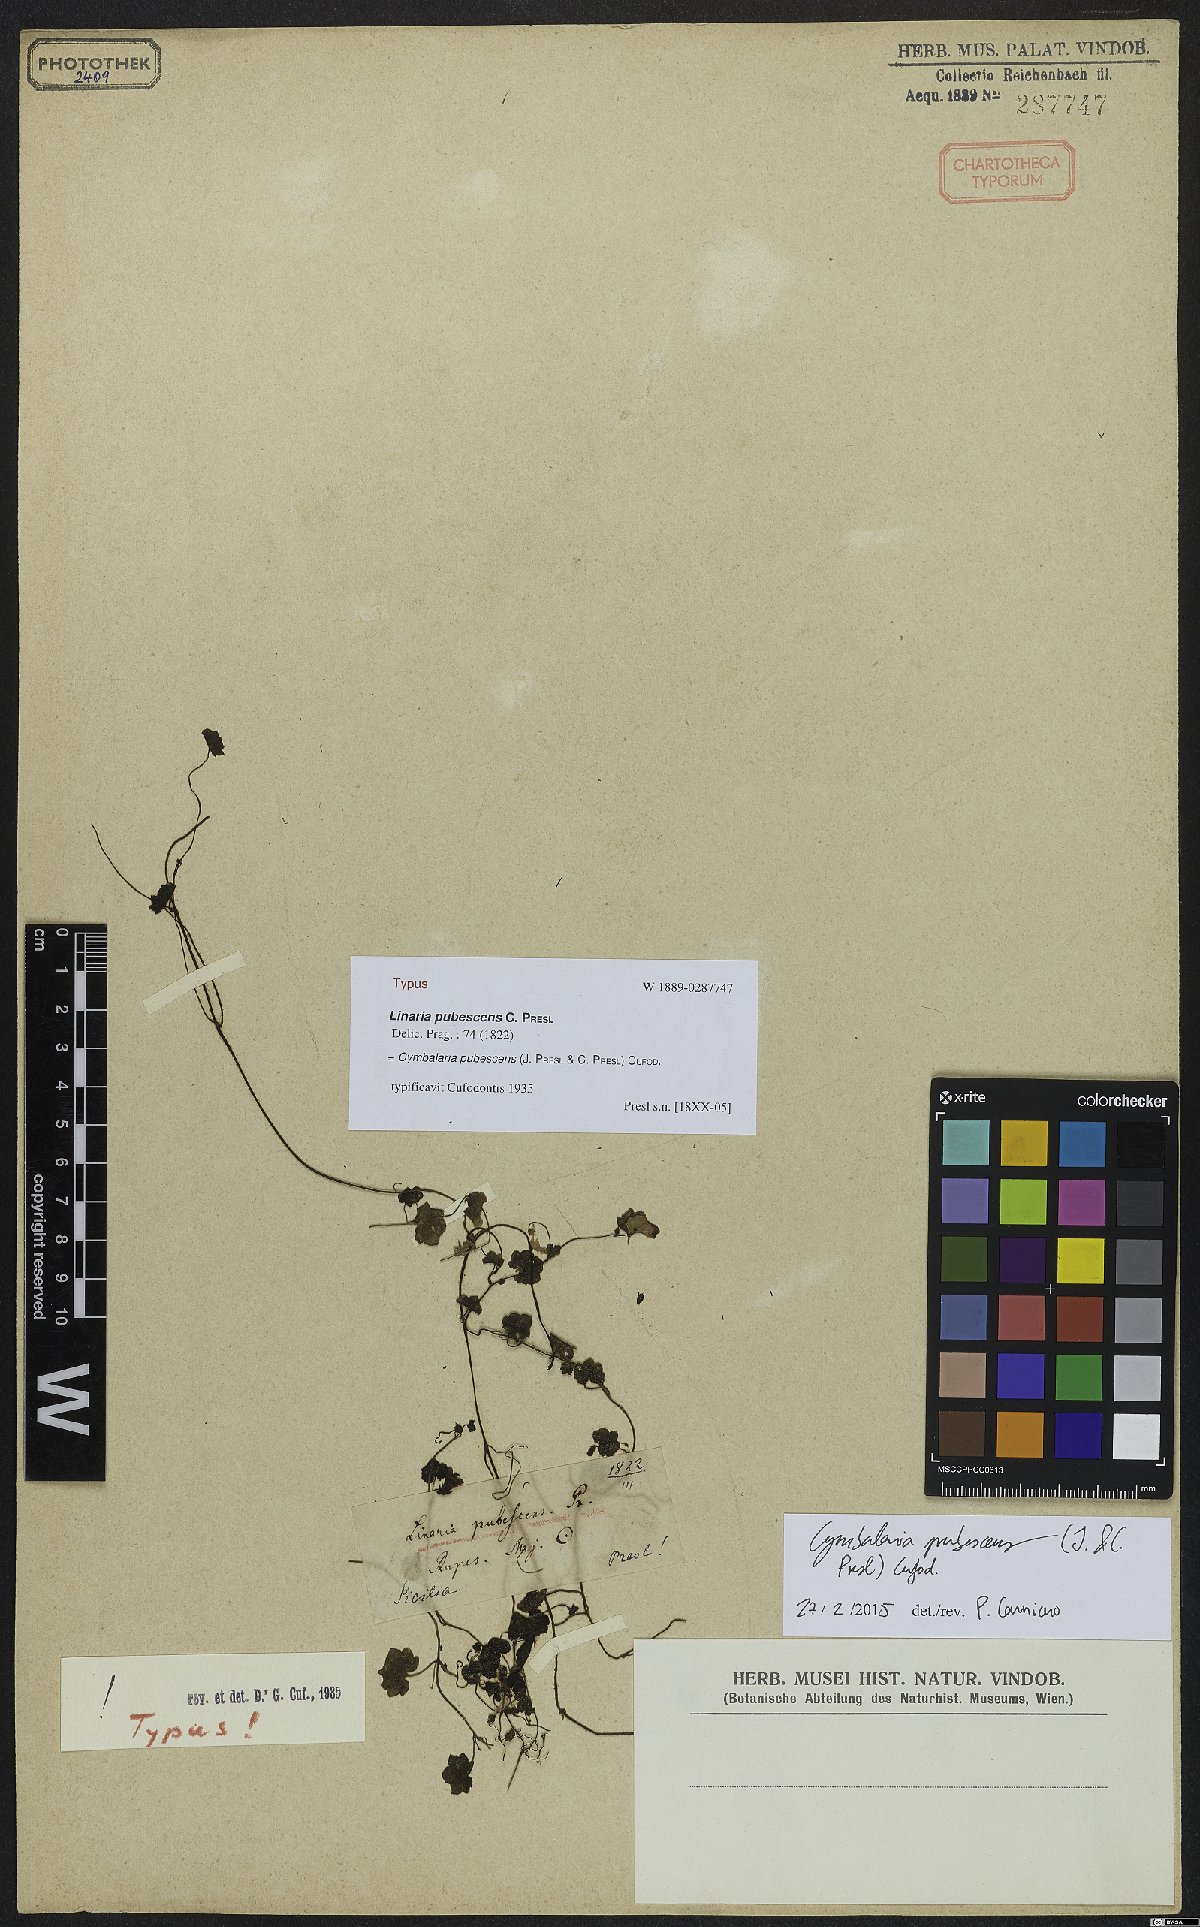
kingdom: Plantae
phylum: Tracheophyta
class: Magnoliopsida
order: Lamiales
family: Plantaginaceae
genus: Cymbalaria
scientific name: Cymbalaria pubescens
